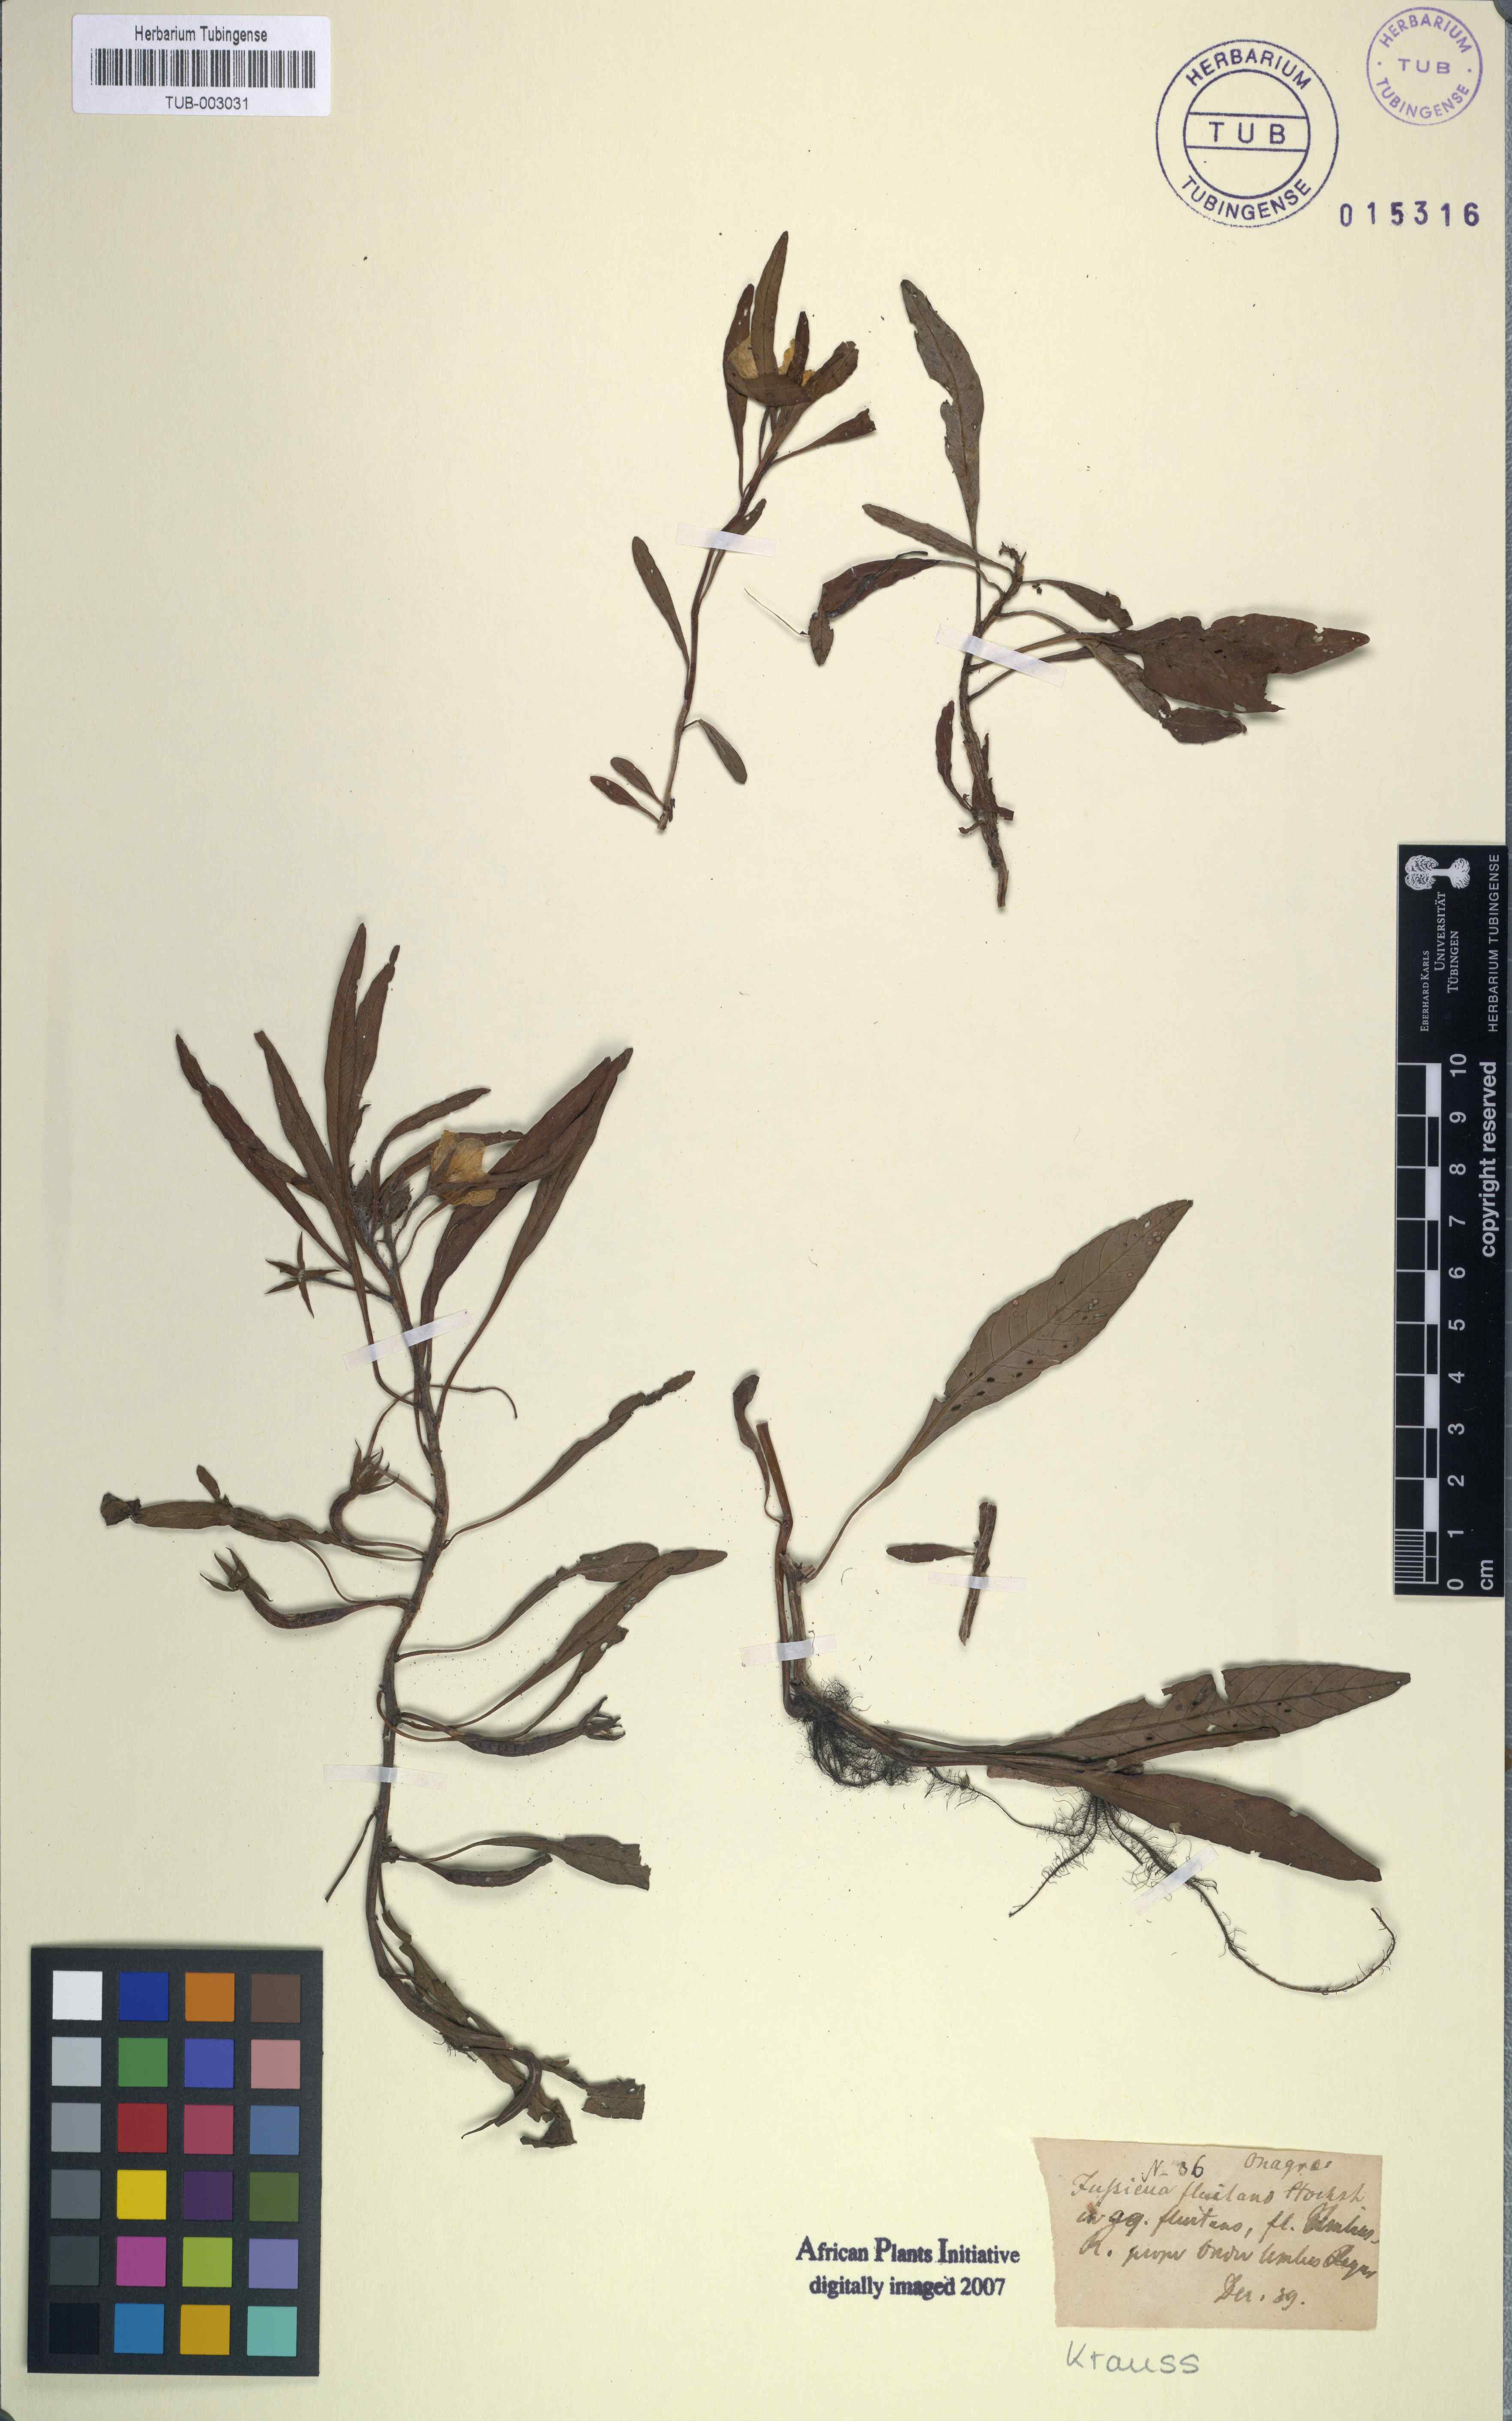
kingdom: Plantae
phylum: Tracheophyta
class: Magnoliopsida
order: Myrtales
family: Onagraceae
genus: Ludwigia
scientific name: Ludwigia adscendens
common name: Creeping water primrose
